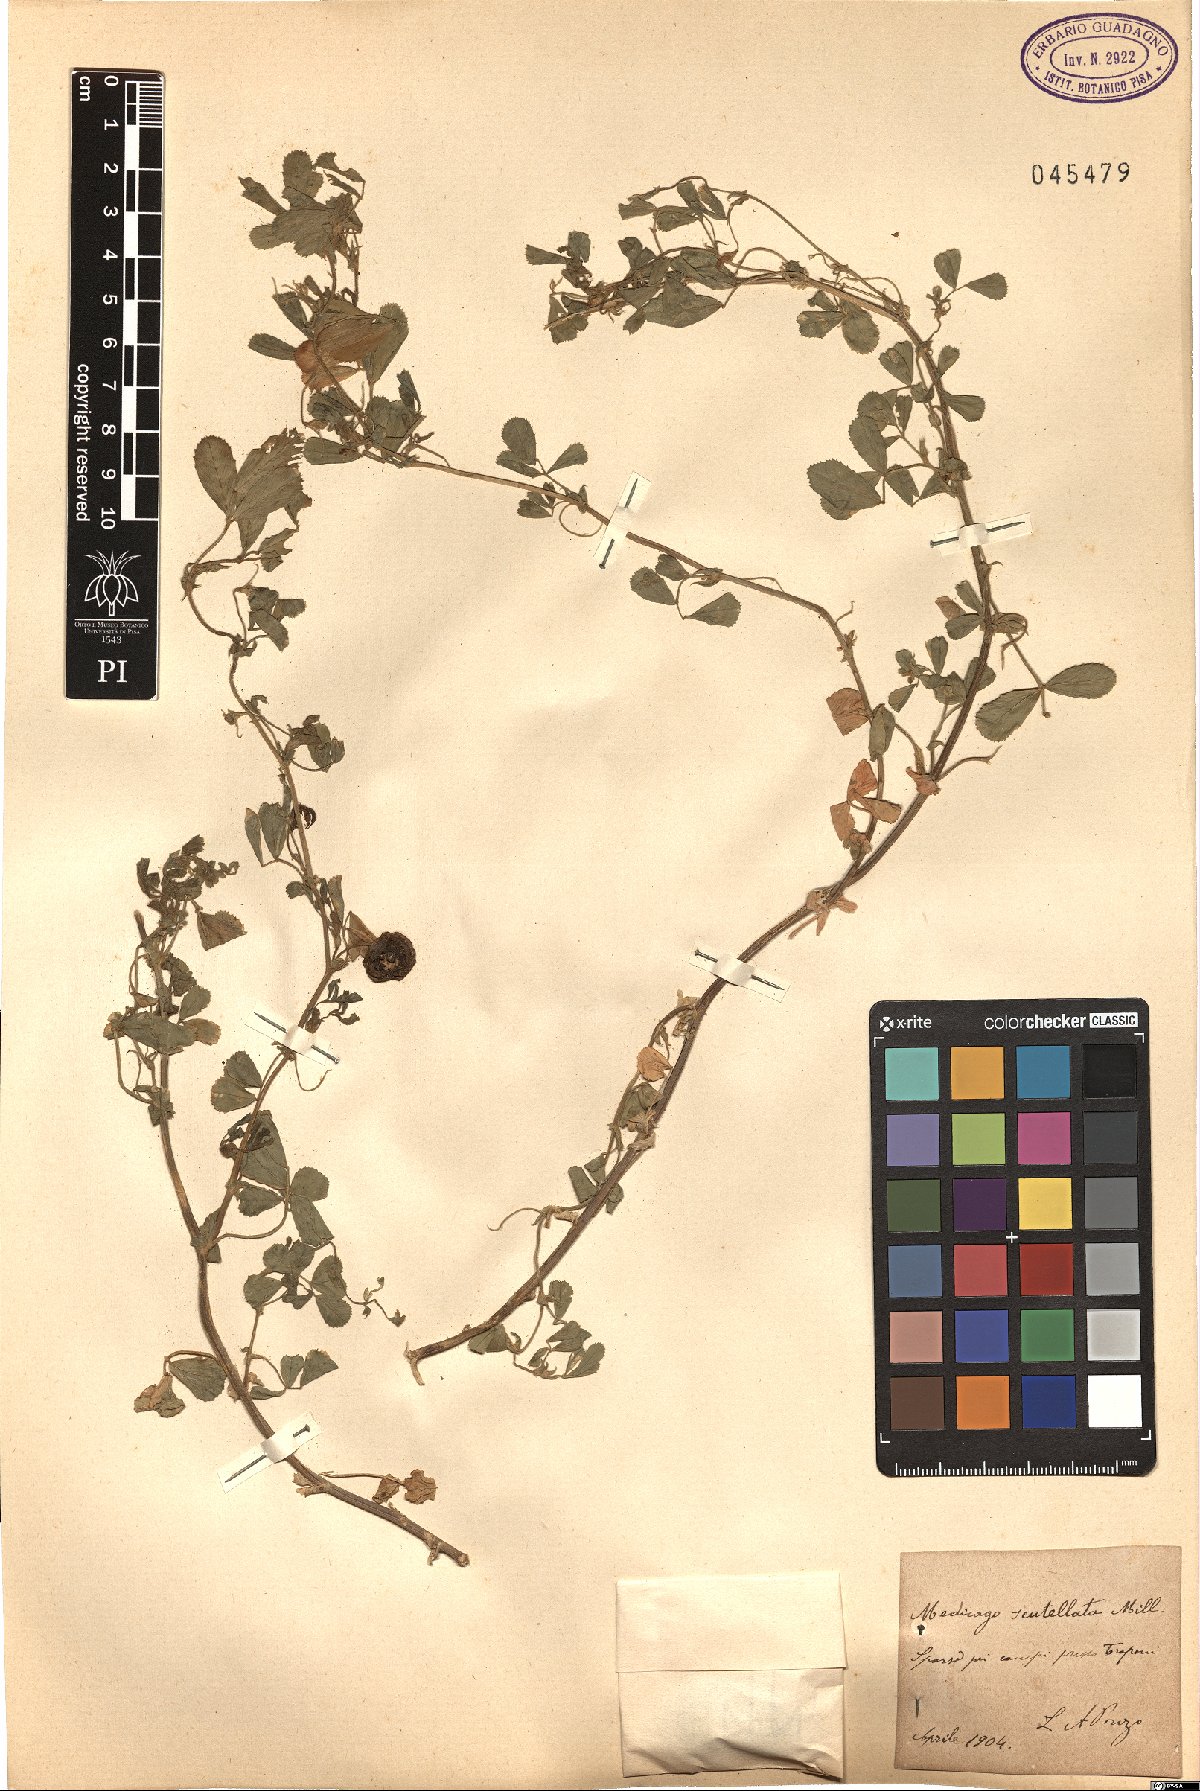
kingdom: Plantae
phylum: Tracheophyta
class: Magnoliopsida
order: Fabales
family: Fabaceae
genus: Medicago
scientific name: Medicago scutellata
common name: Snail medick
